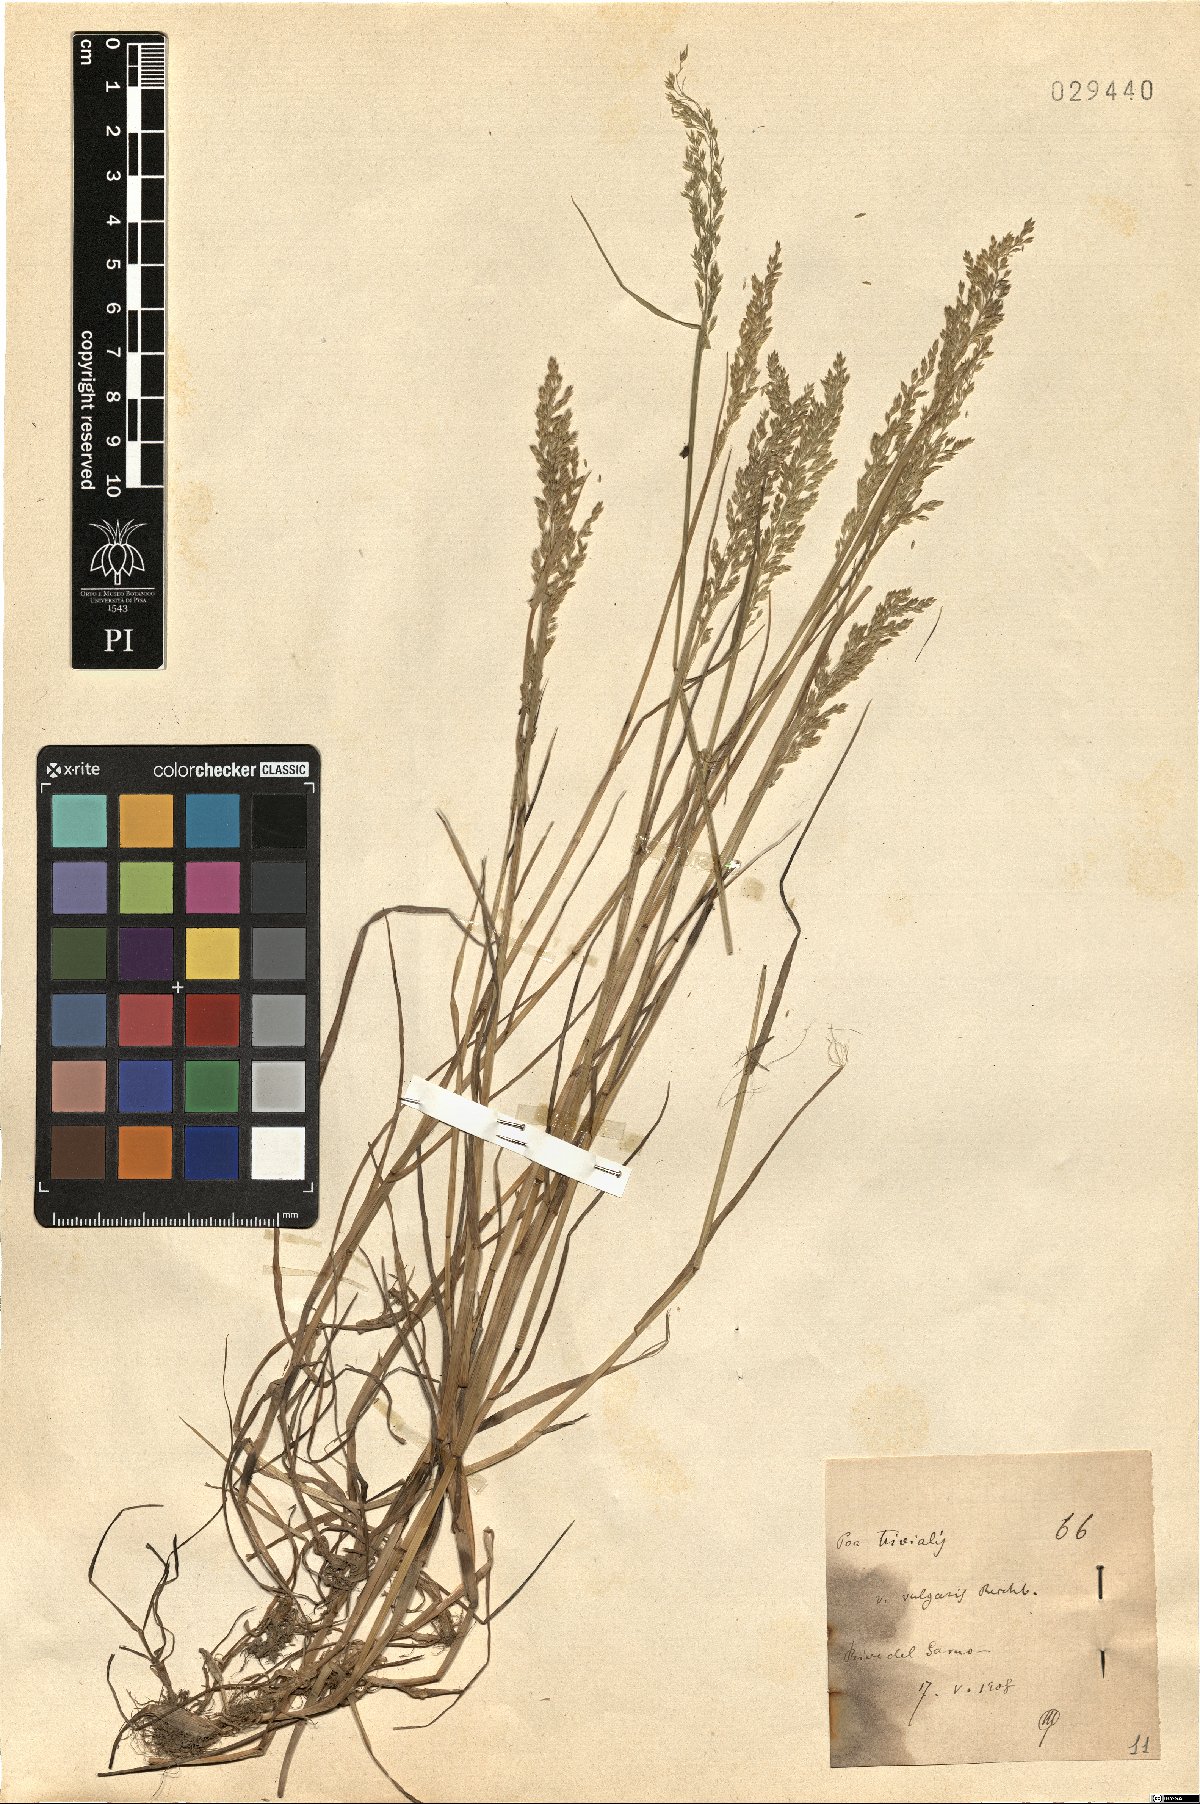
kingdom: Plantae
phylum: Tracheophyta
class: Liliopsida
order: Poales
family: Poaceae
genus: Poa
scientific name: Poa trivialis
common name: Rough bluegrass
